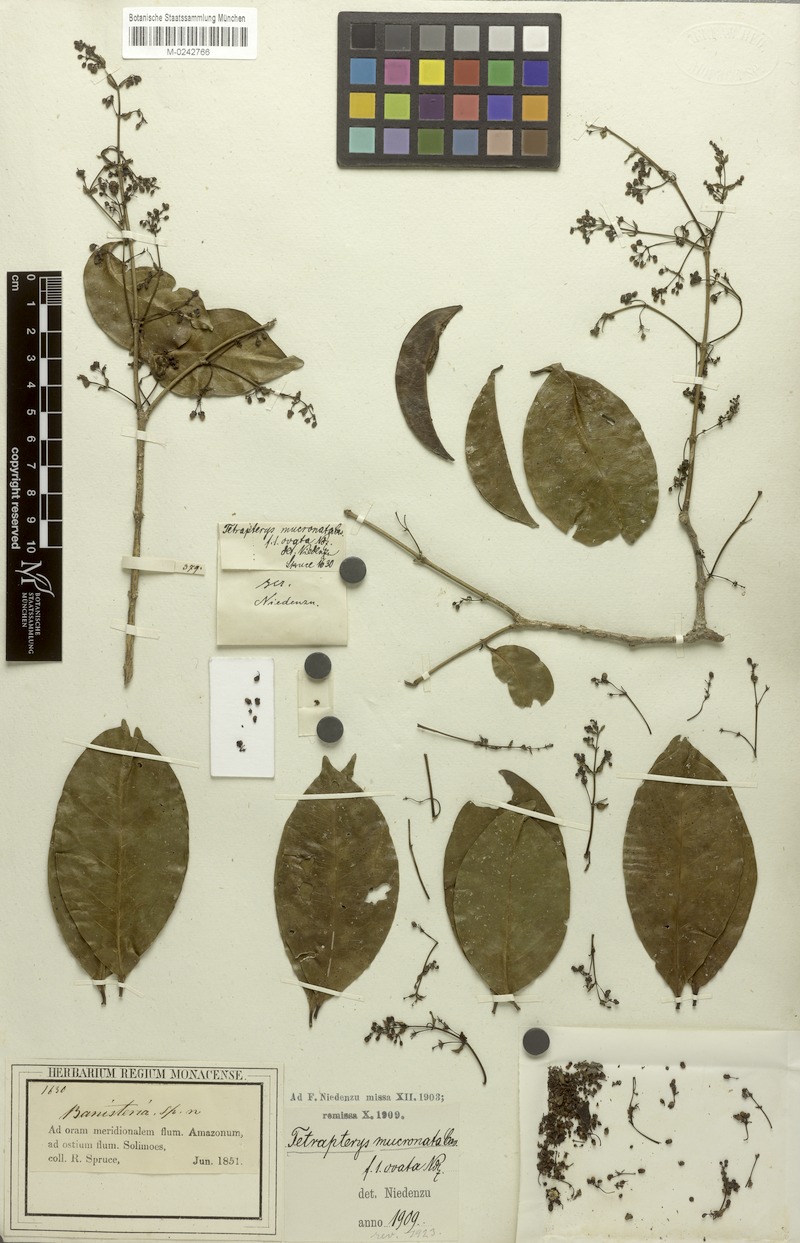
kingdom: Plantae
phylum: Tracheophyta
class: Magnoliopsida
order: Malpighiales
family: Malpighiaceae
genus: Tetrapterys
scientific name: Tetrapterys mucronata
